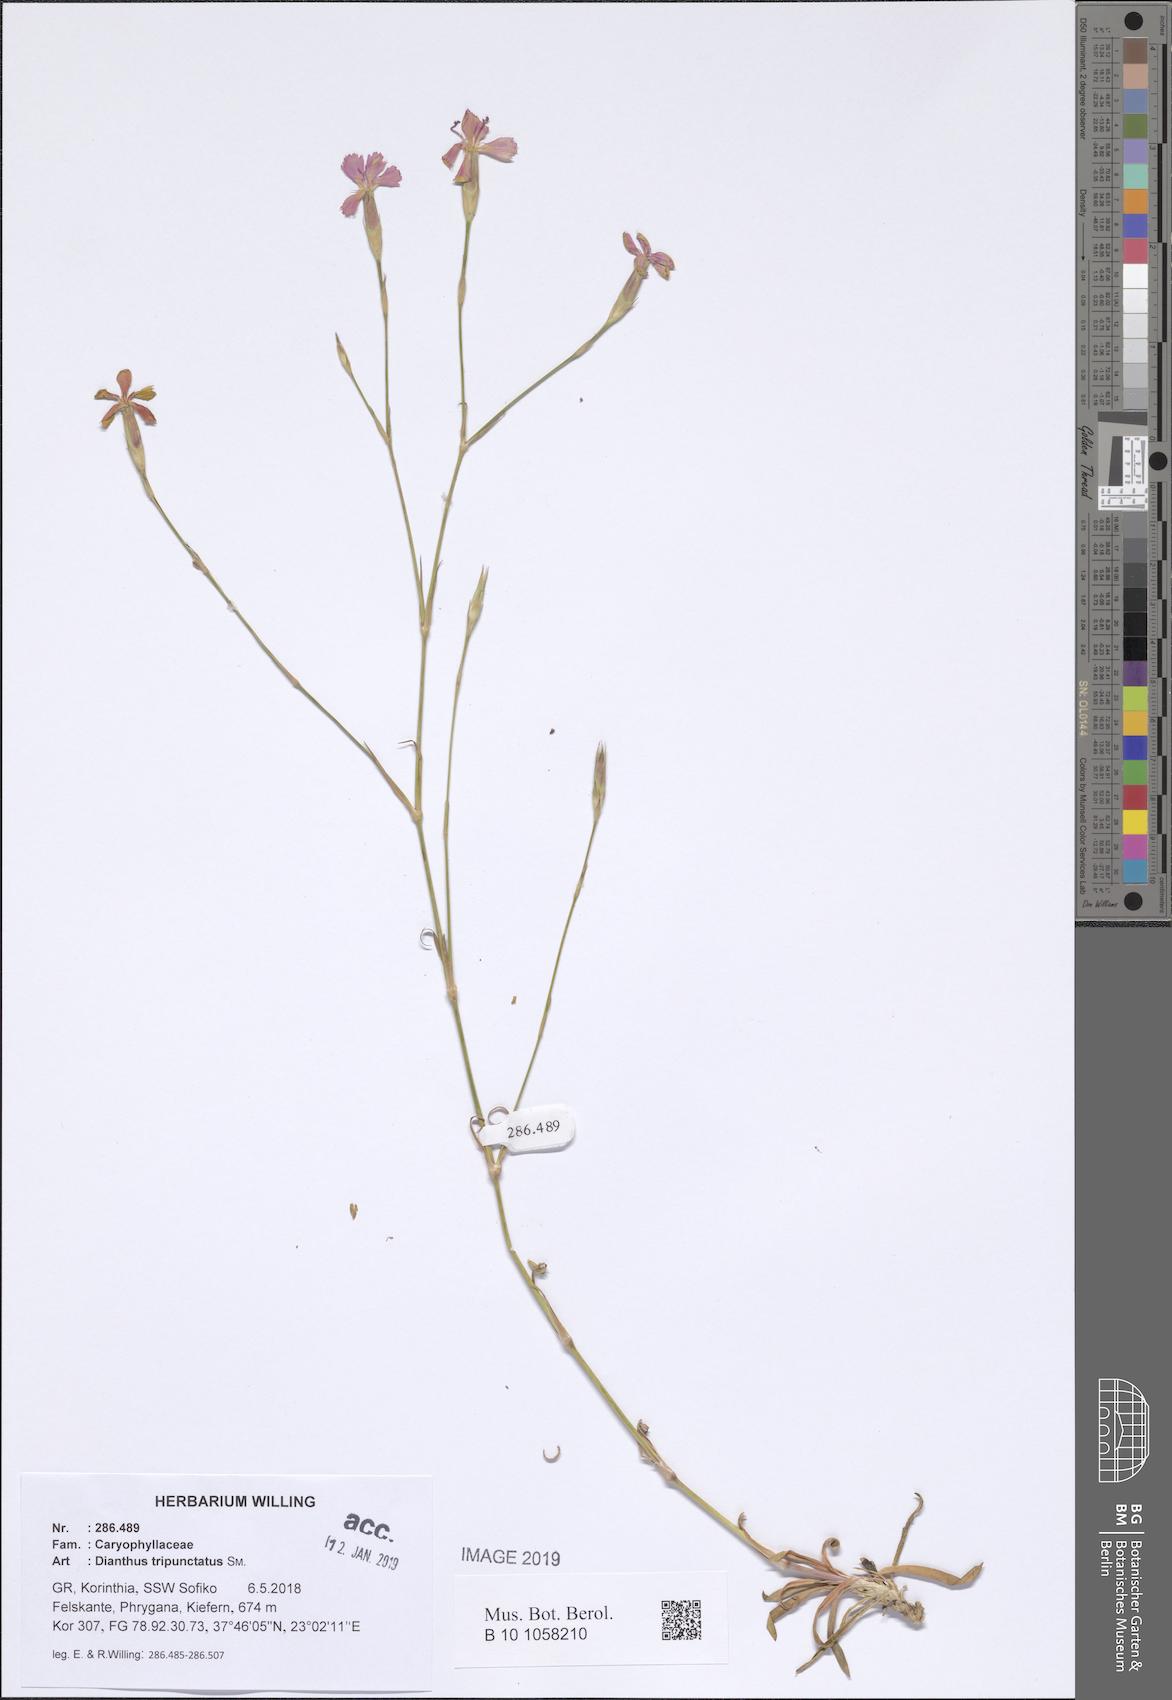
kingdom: Plantae
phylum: Tracheophyta
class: Magnoliopsida
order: Caryophyllales
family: Caryophyllaceae
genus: Dianthus
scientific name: Dianthus tripunctatus
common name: Three-spotted pink
